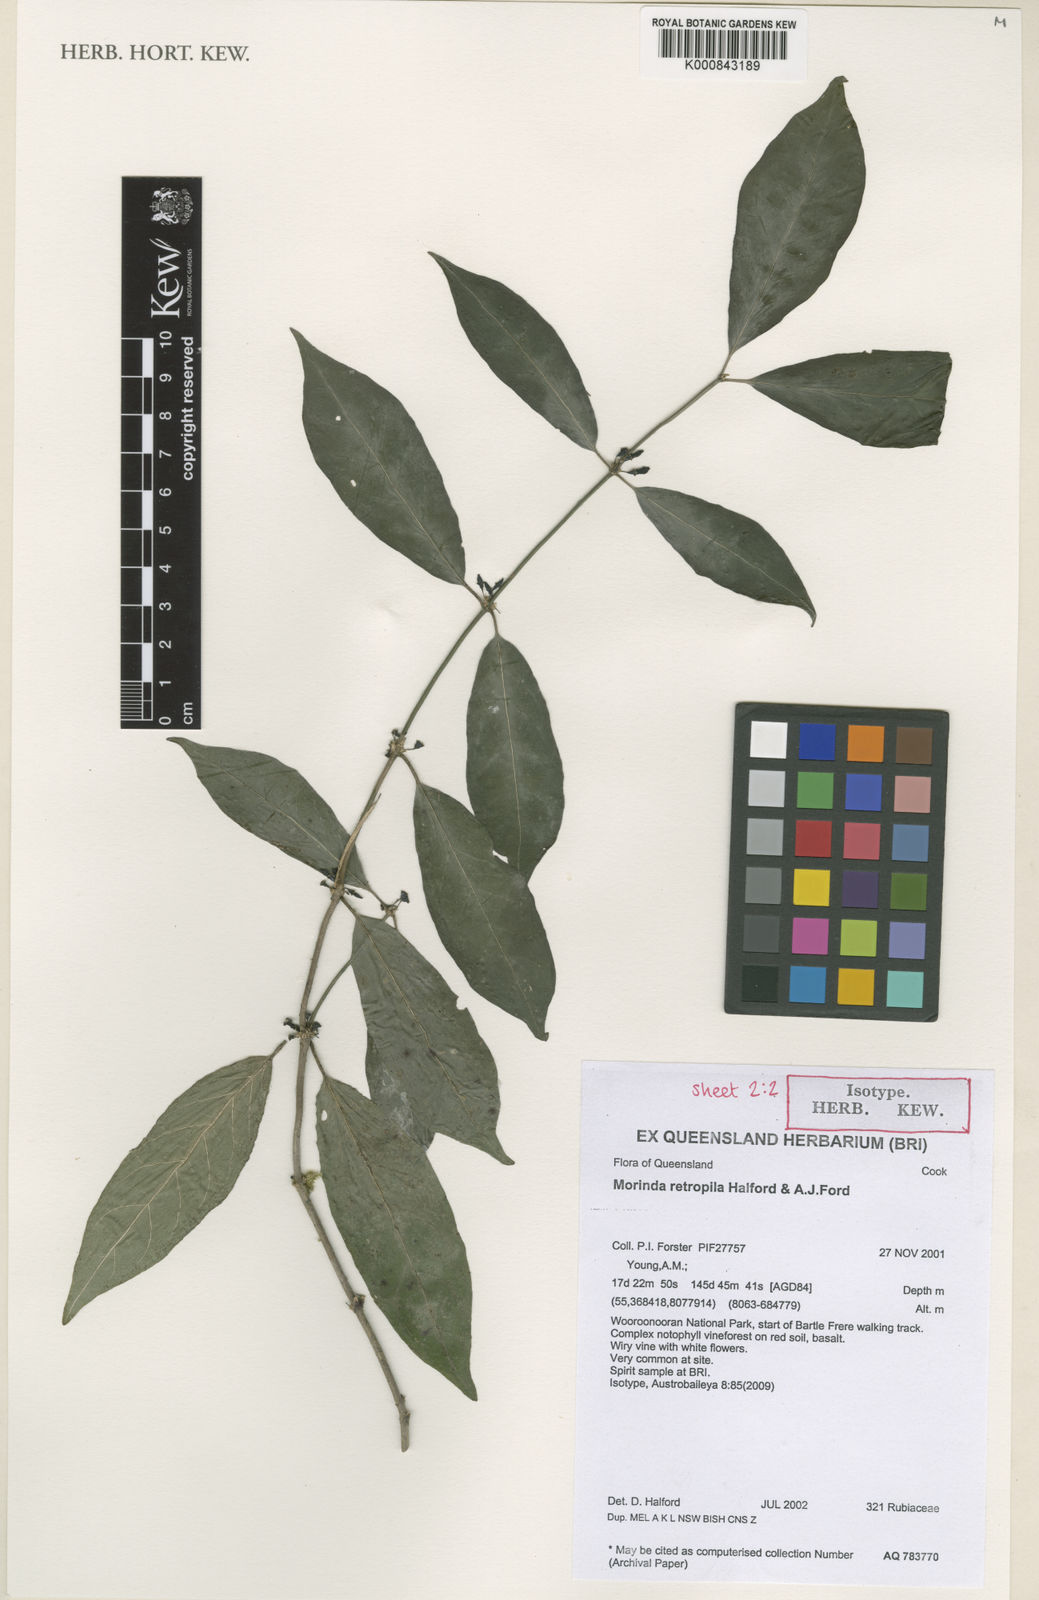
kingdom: Plantae
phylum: Tracheophyta
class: Magnoliopsida
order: Gentianales
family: Rubiaceae
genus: Gynochthodes
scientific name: Gynochthodes retropila
